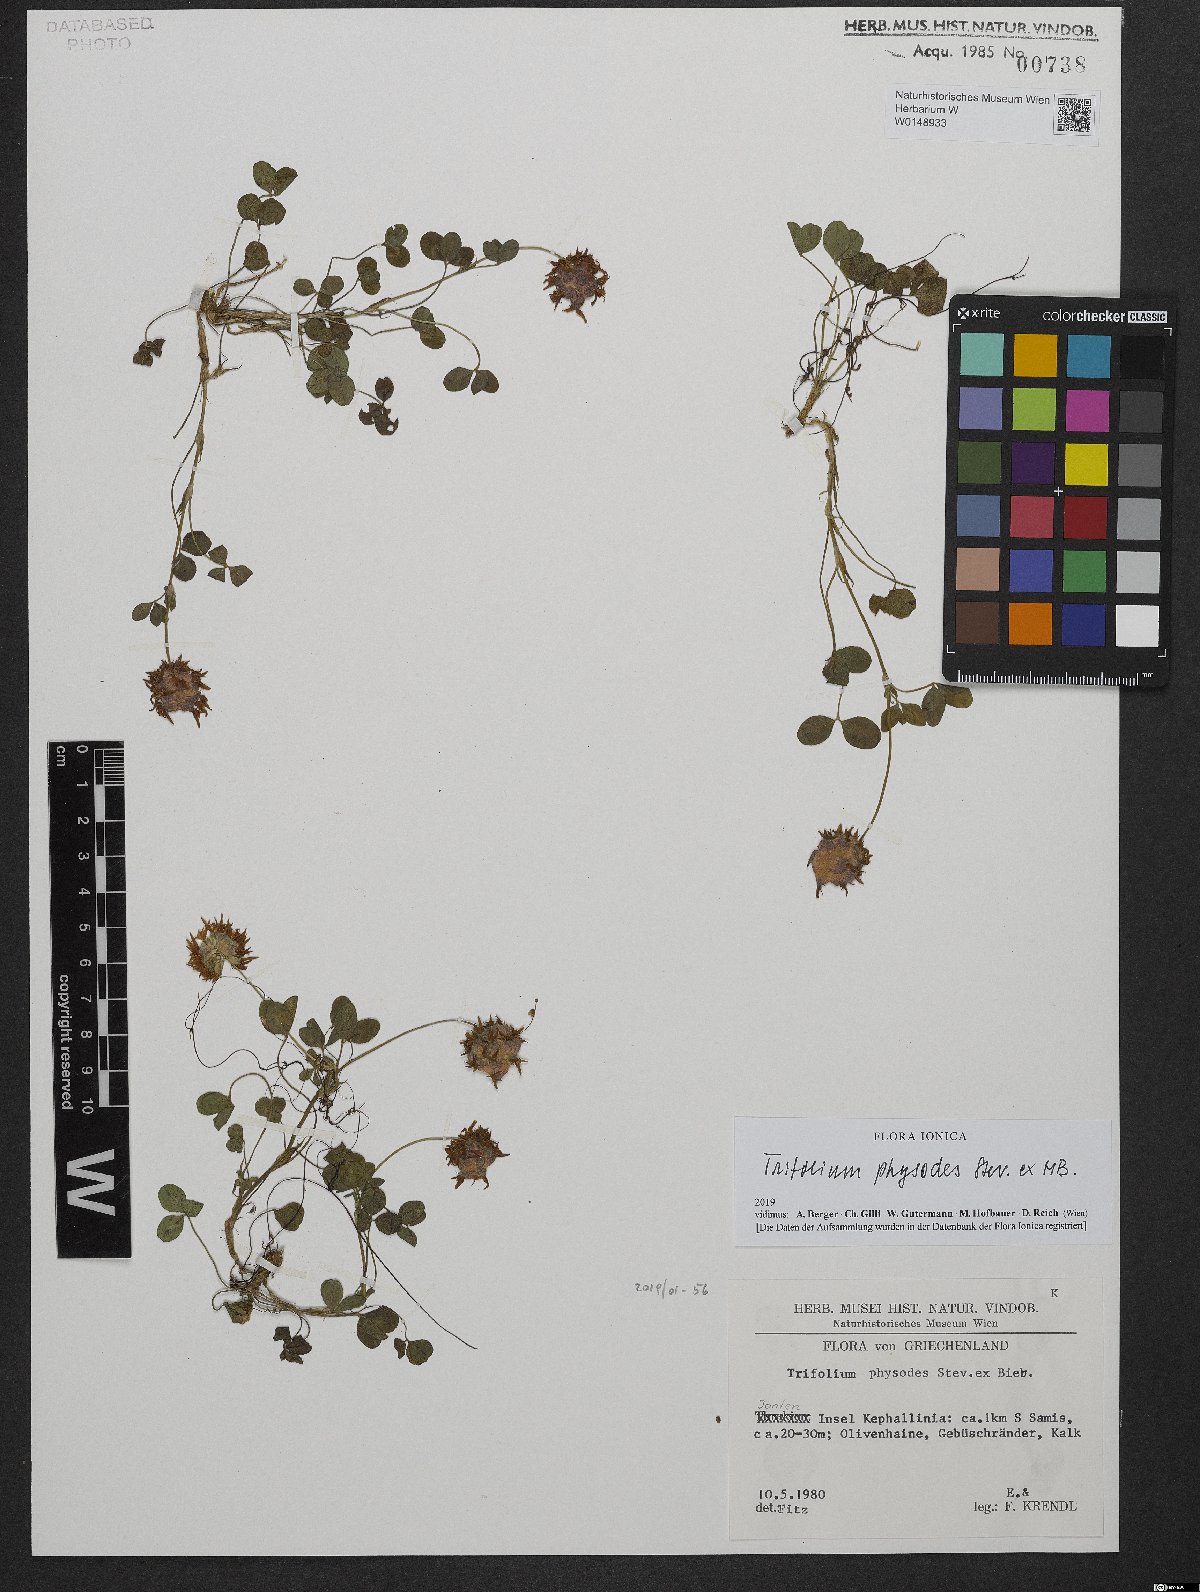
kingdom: Plantae
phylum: Tracheophyta
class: Magnoliopsida
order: Fabales
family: Fabaceae
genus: Trifolium
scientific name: Trifolium physodes
